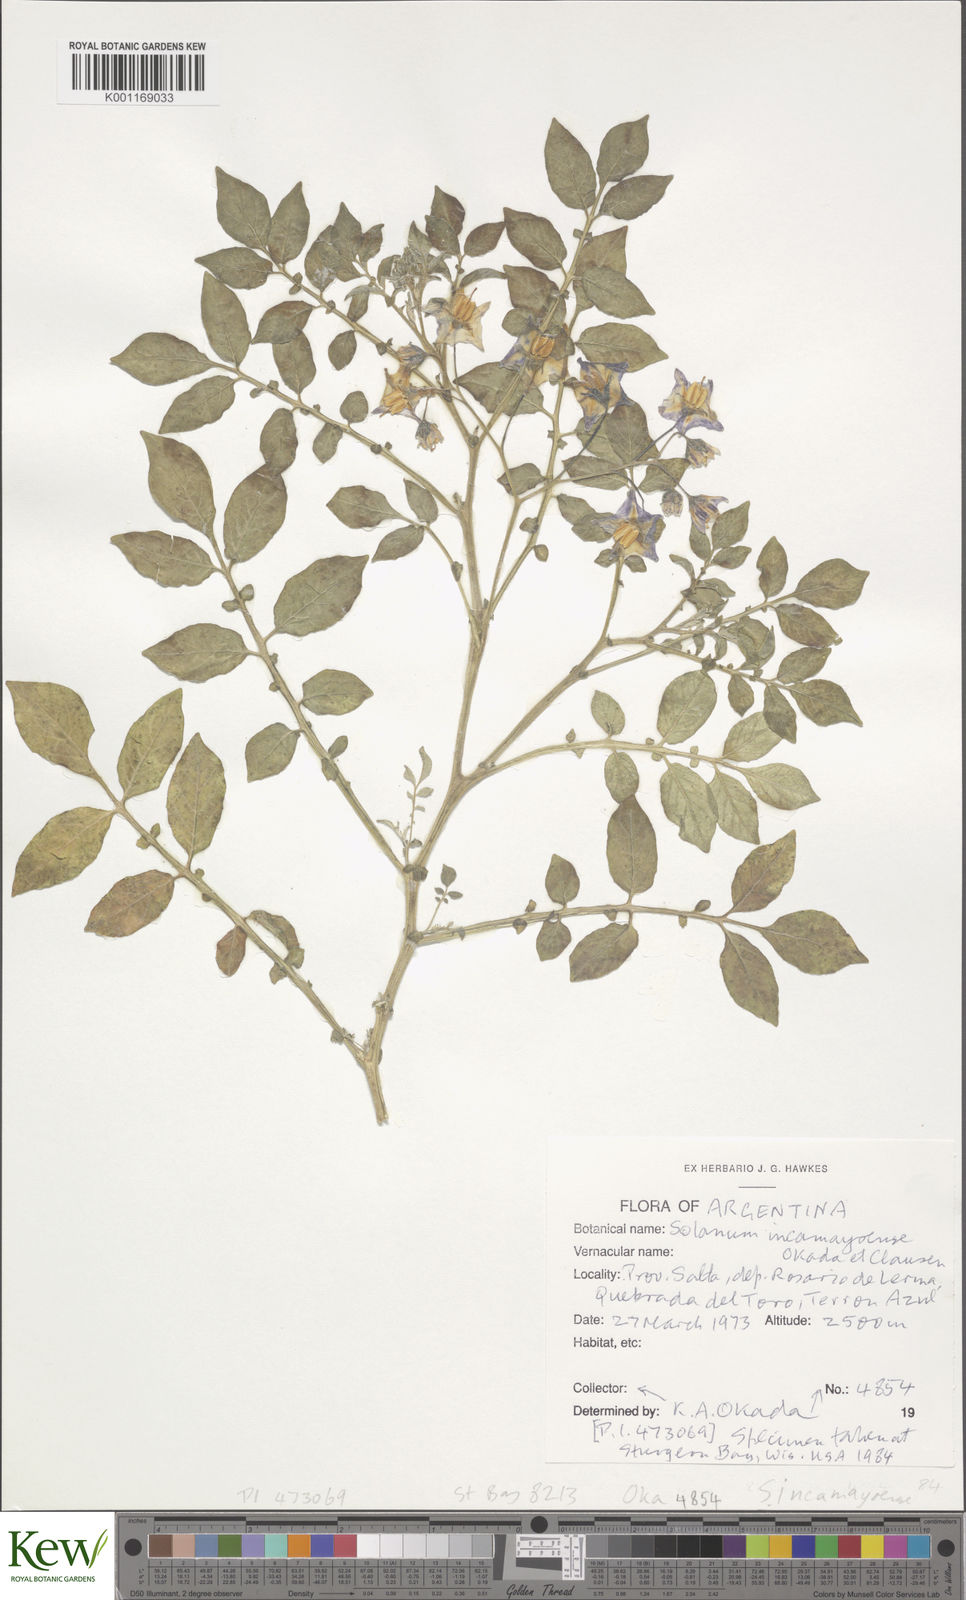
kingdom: Plantae
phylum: Tracheophyta
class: Magnoliopsida
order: Solanales
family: Solanaceae
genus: Solanum
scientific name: Solanum brevicaule
